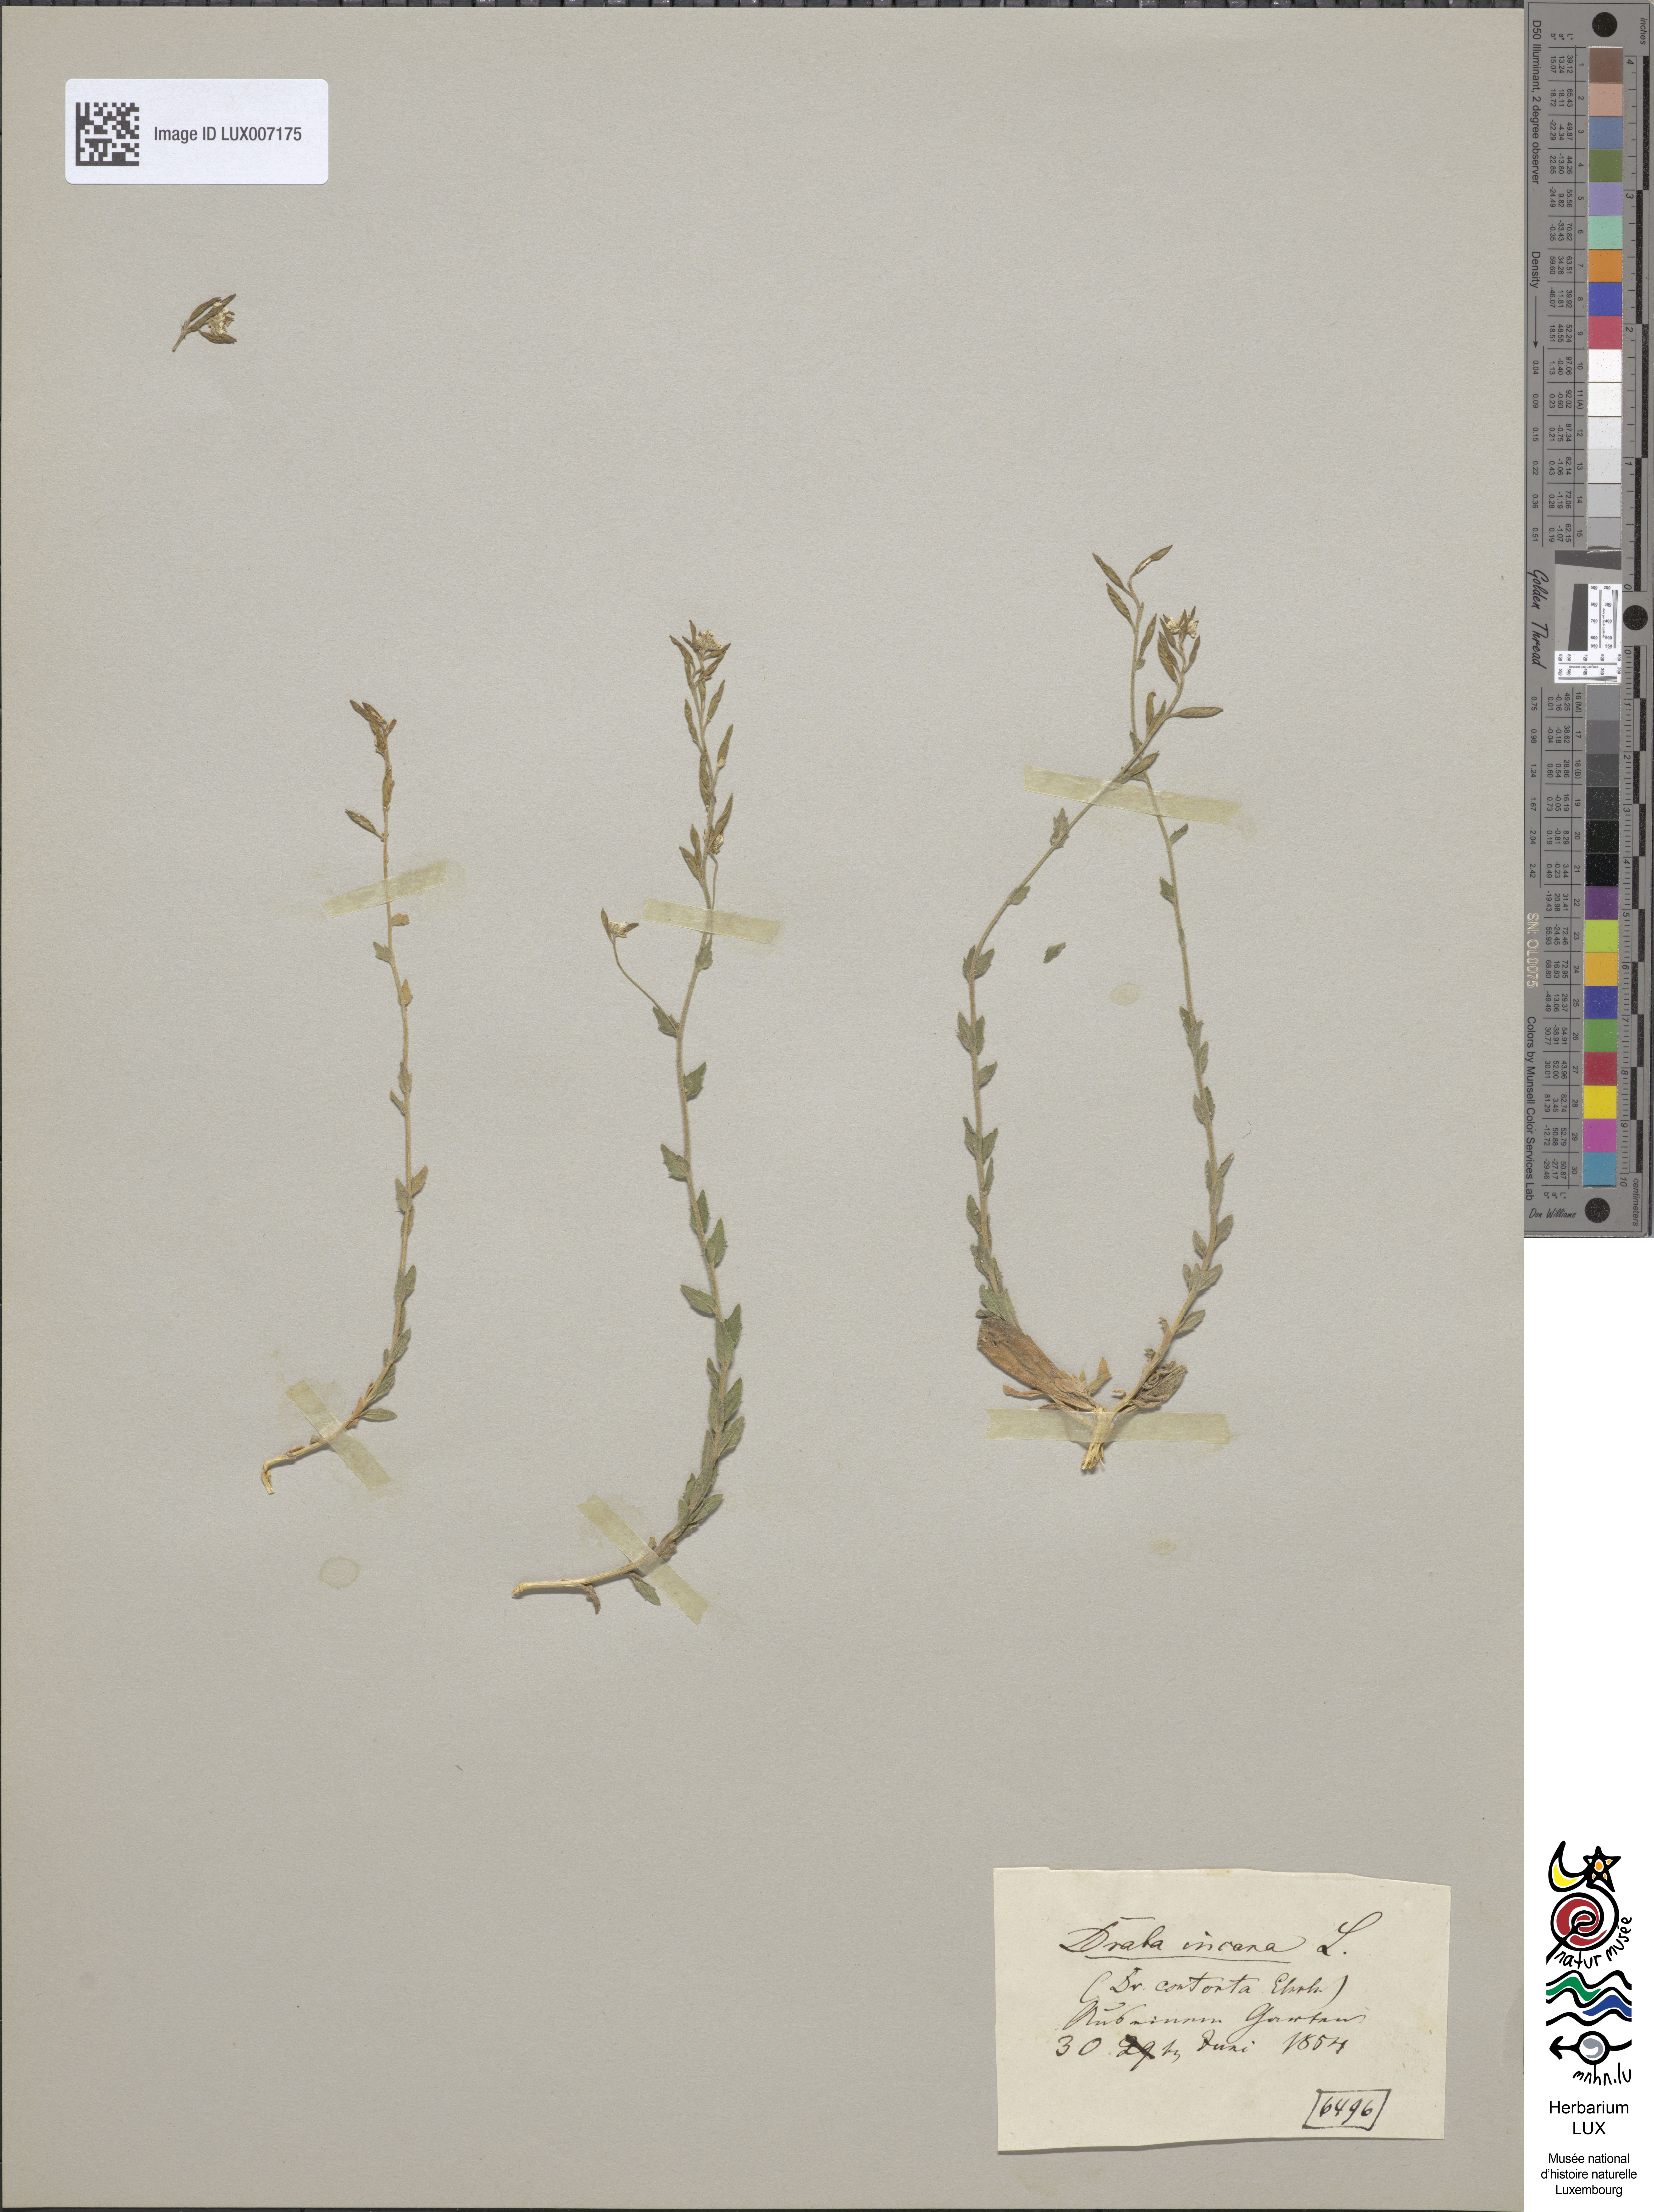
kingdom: Plantae
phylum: Tracheophyta
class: Magnoliopsida
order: Brassicales
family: Brassicaceae
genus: Draba
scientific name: Draba incana
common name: Hoary whitlow-grass
